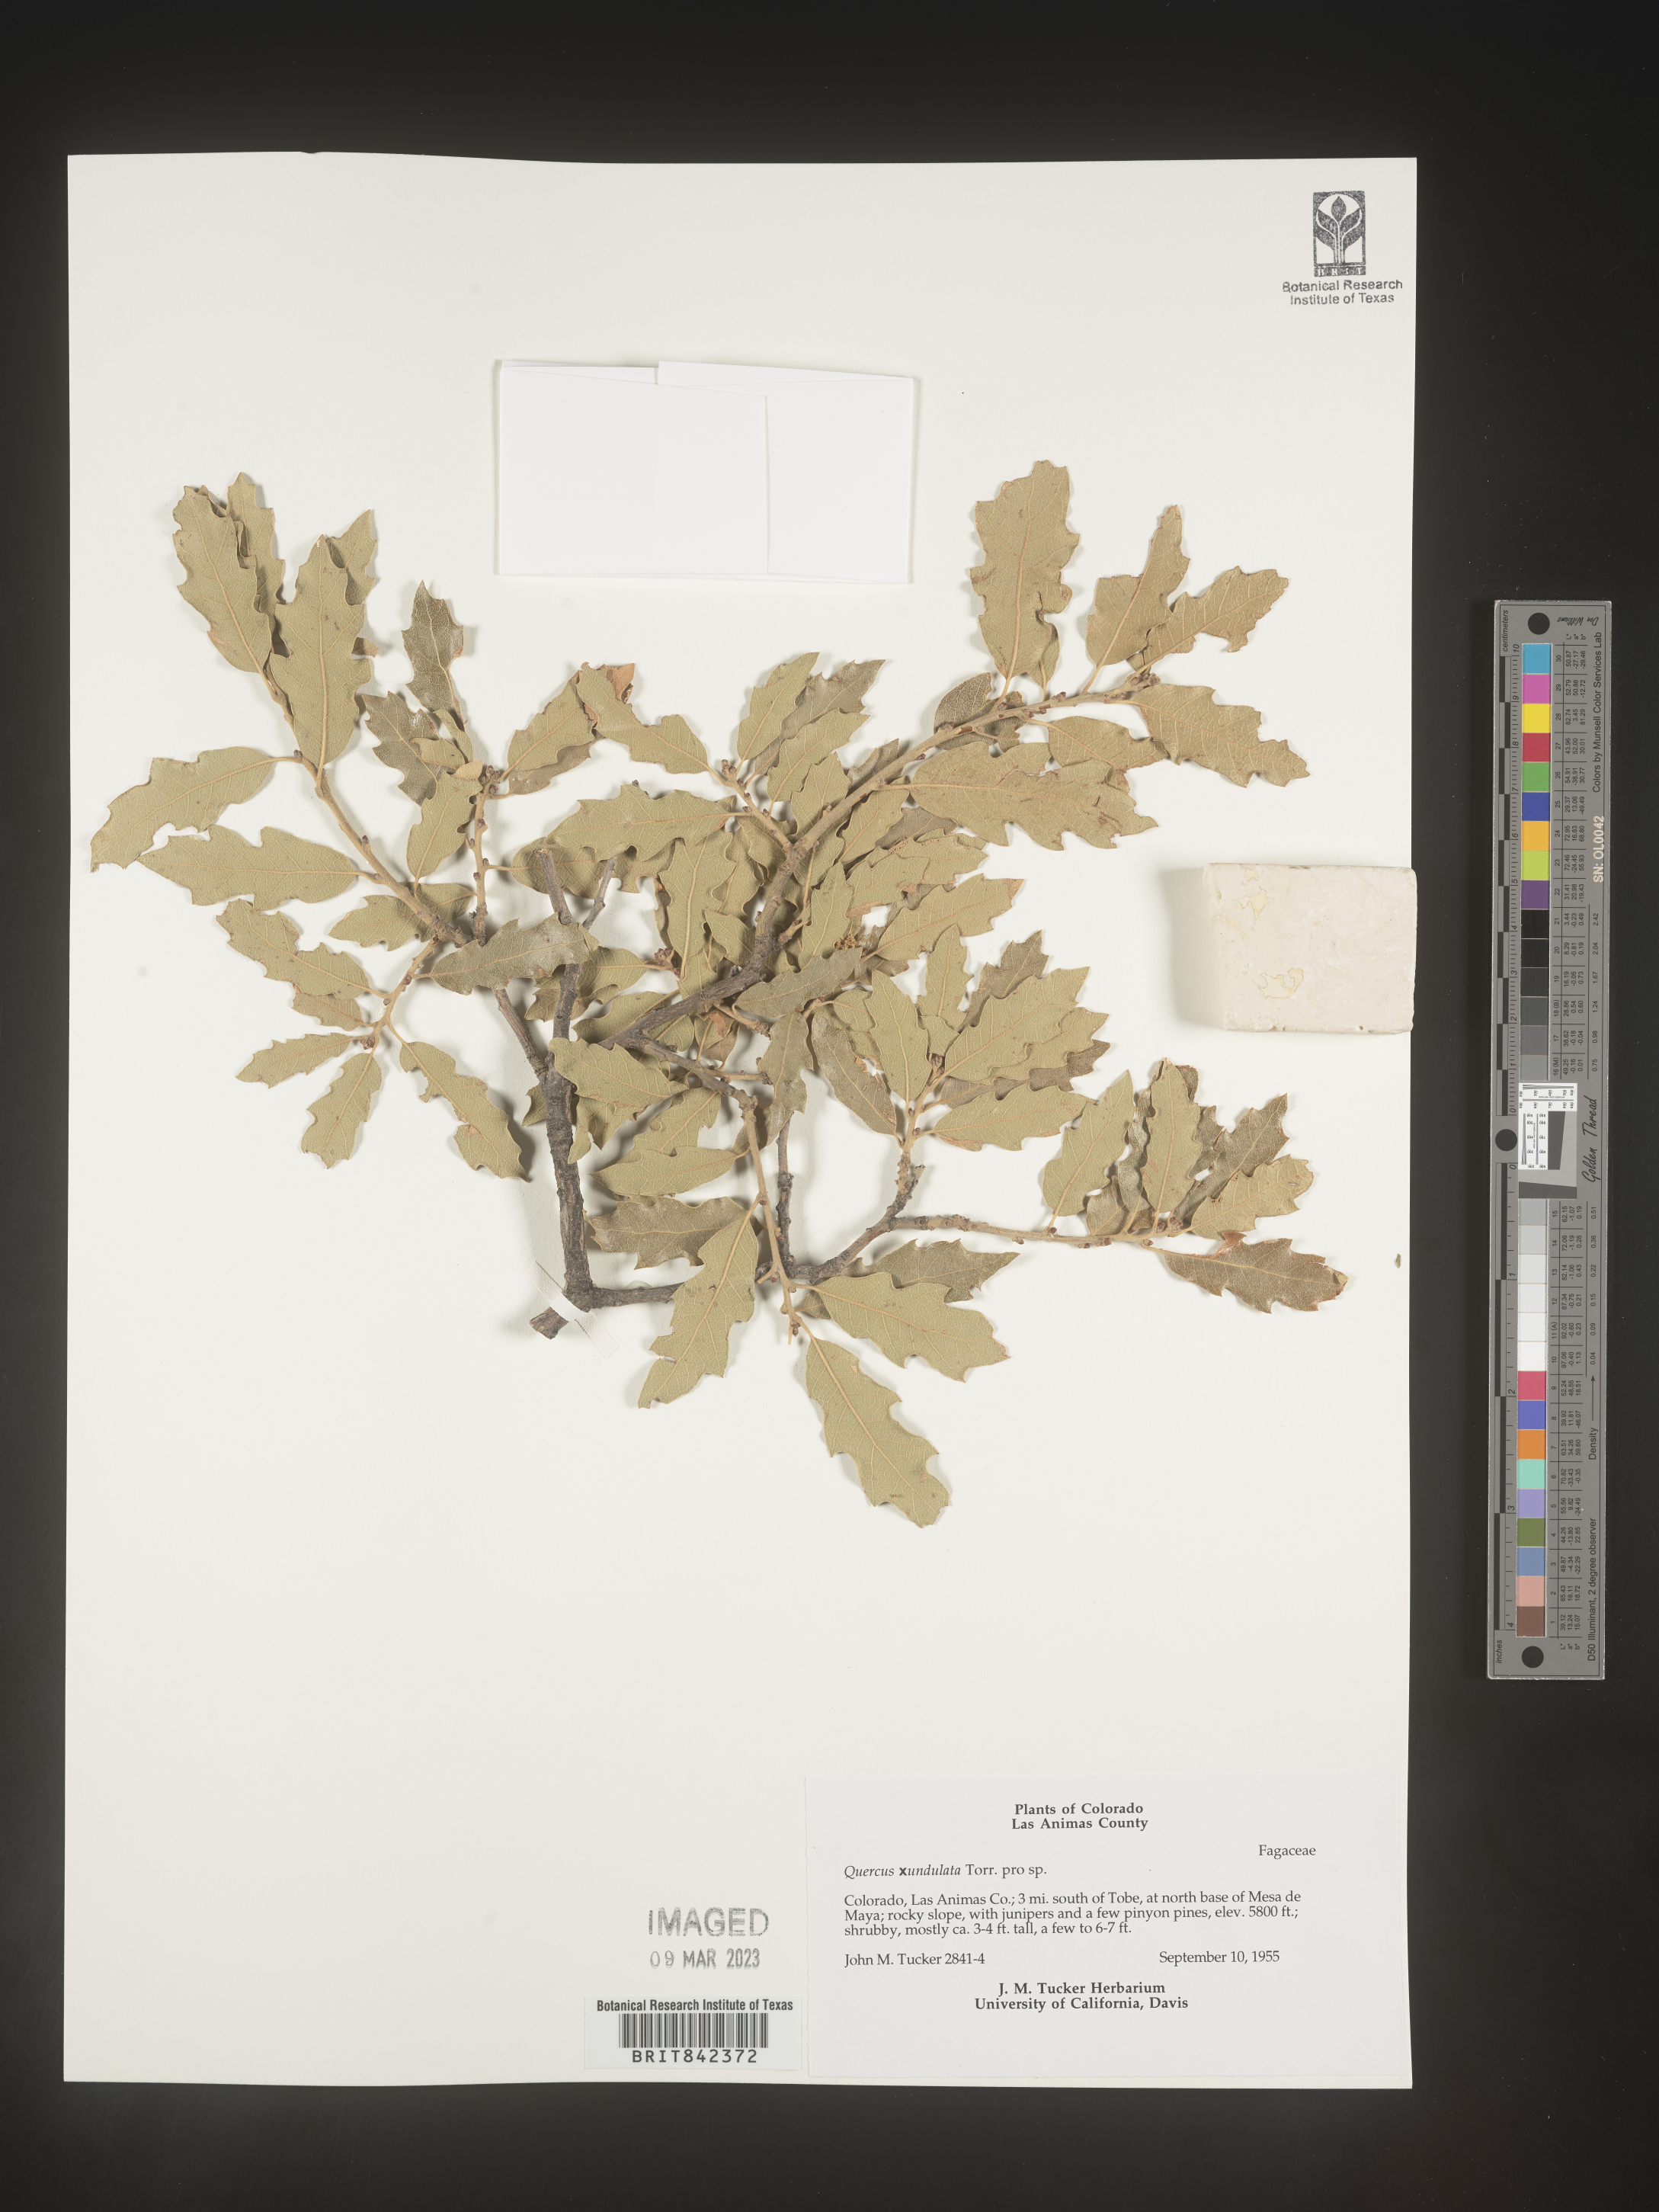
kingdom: Plantae
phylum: Tracheophyta
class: Magnoliopsida
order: Fagales
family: Fagaceae
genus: Quercus
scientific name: Quercus undulata
